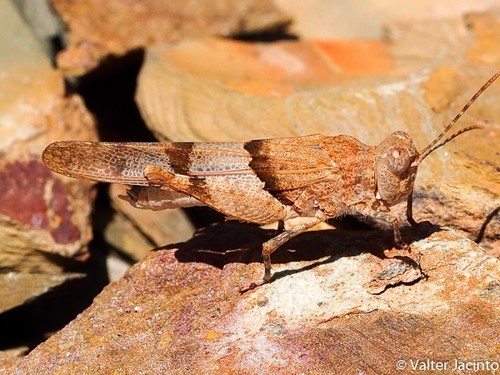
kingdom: Animalia
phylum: Arthropoda
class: Insecta
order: Orthoptera
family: Acrididae
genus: Sphingonotus
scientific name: Sphingonotus lluciapomaresi
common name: Iberian sand grasshopper
